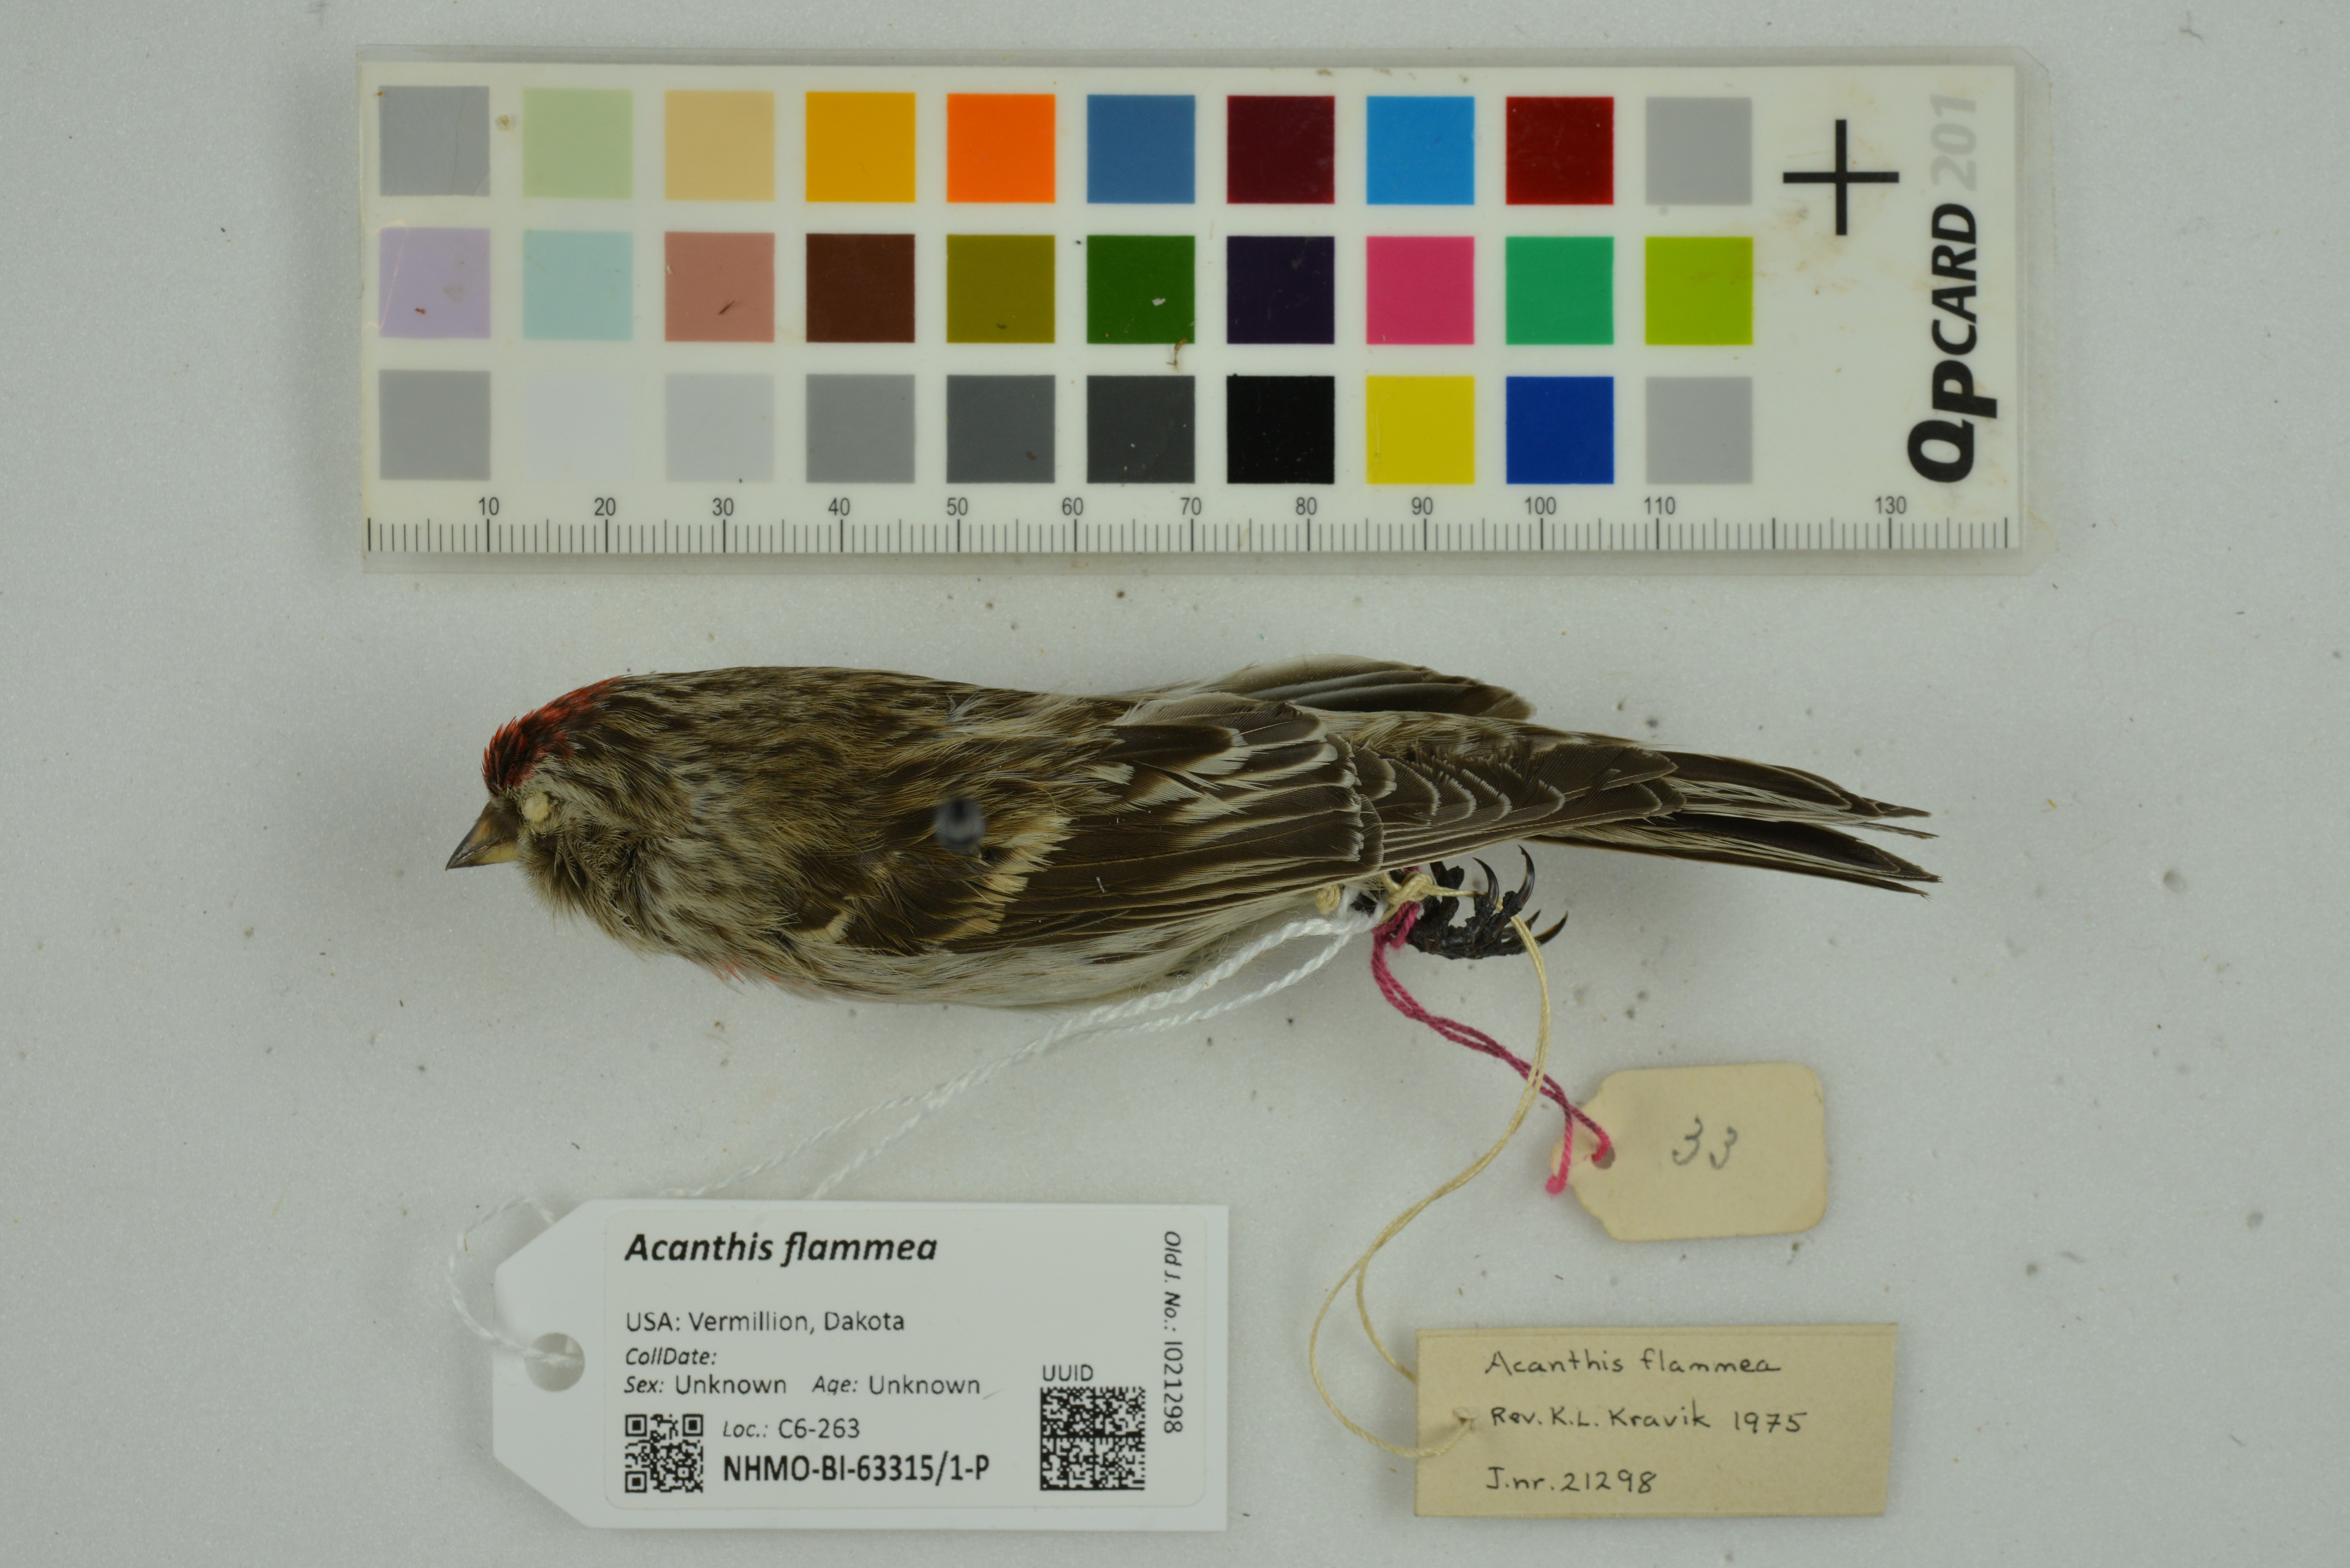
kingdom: Animalia
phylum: Chordata
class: Aves
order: Passeriformes
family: Fringillidae
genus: Acanthis
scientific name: Acanthis flammea
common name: Common redpoll
